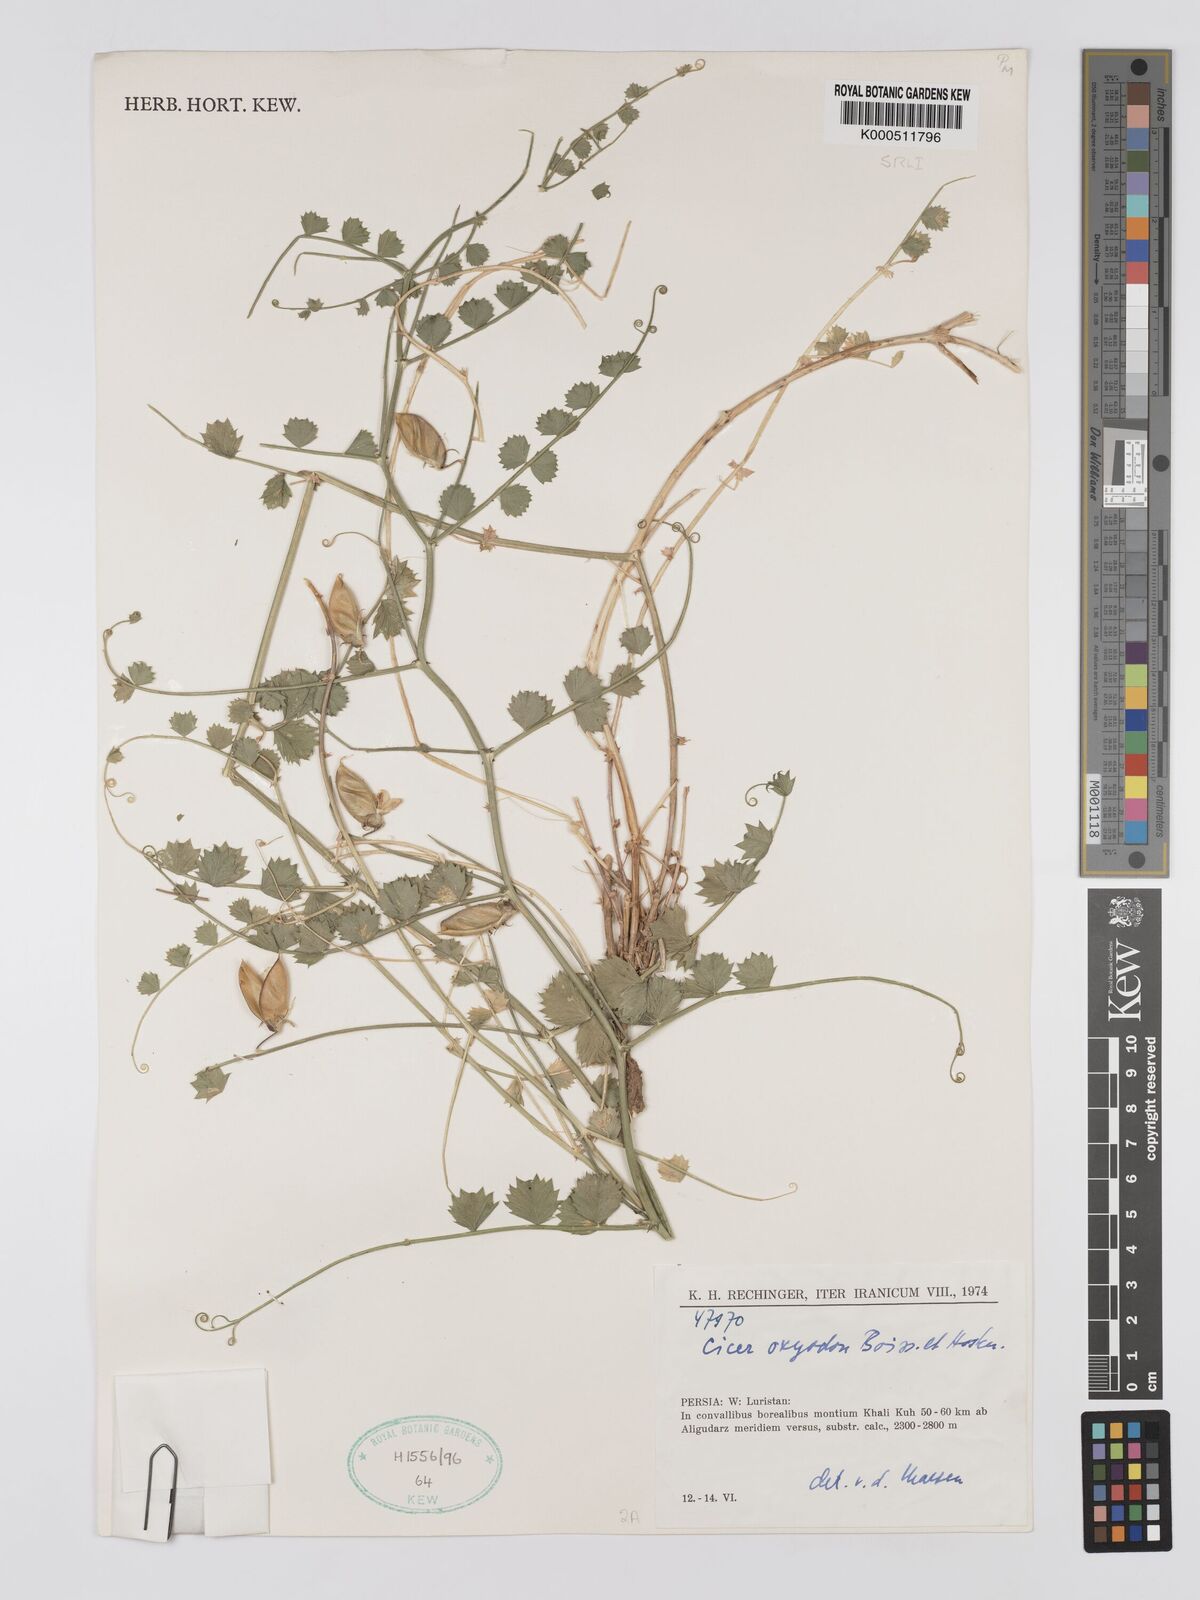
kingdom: Plantae
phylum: Tracheophyta
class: Magnoliopsida
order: Fabales
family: Fabaceae
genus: Cicer
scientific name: Cicer oxyodon
